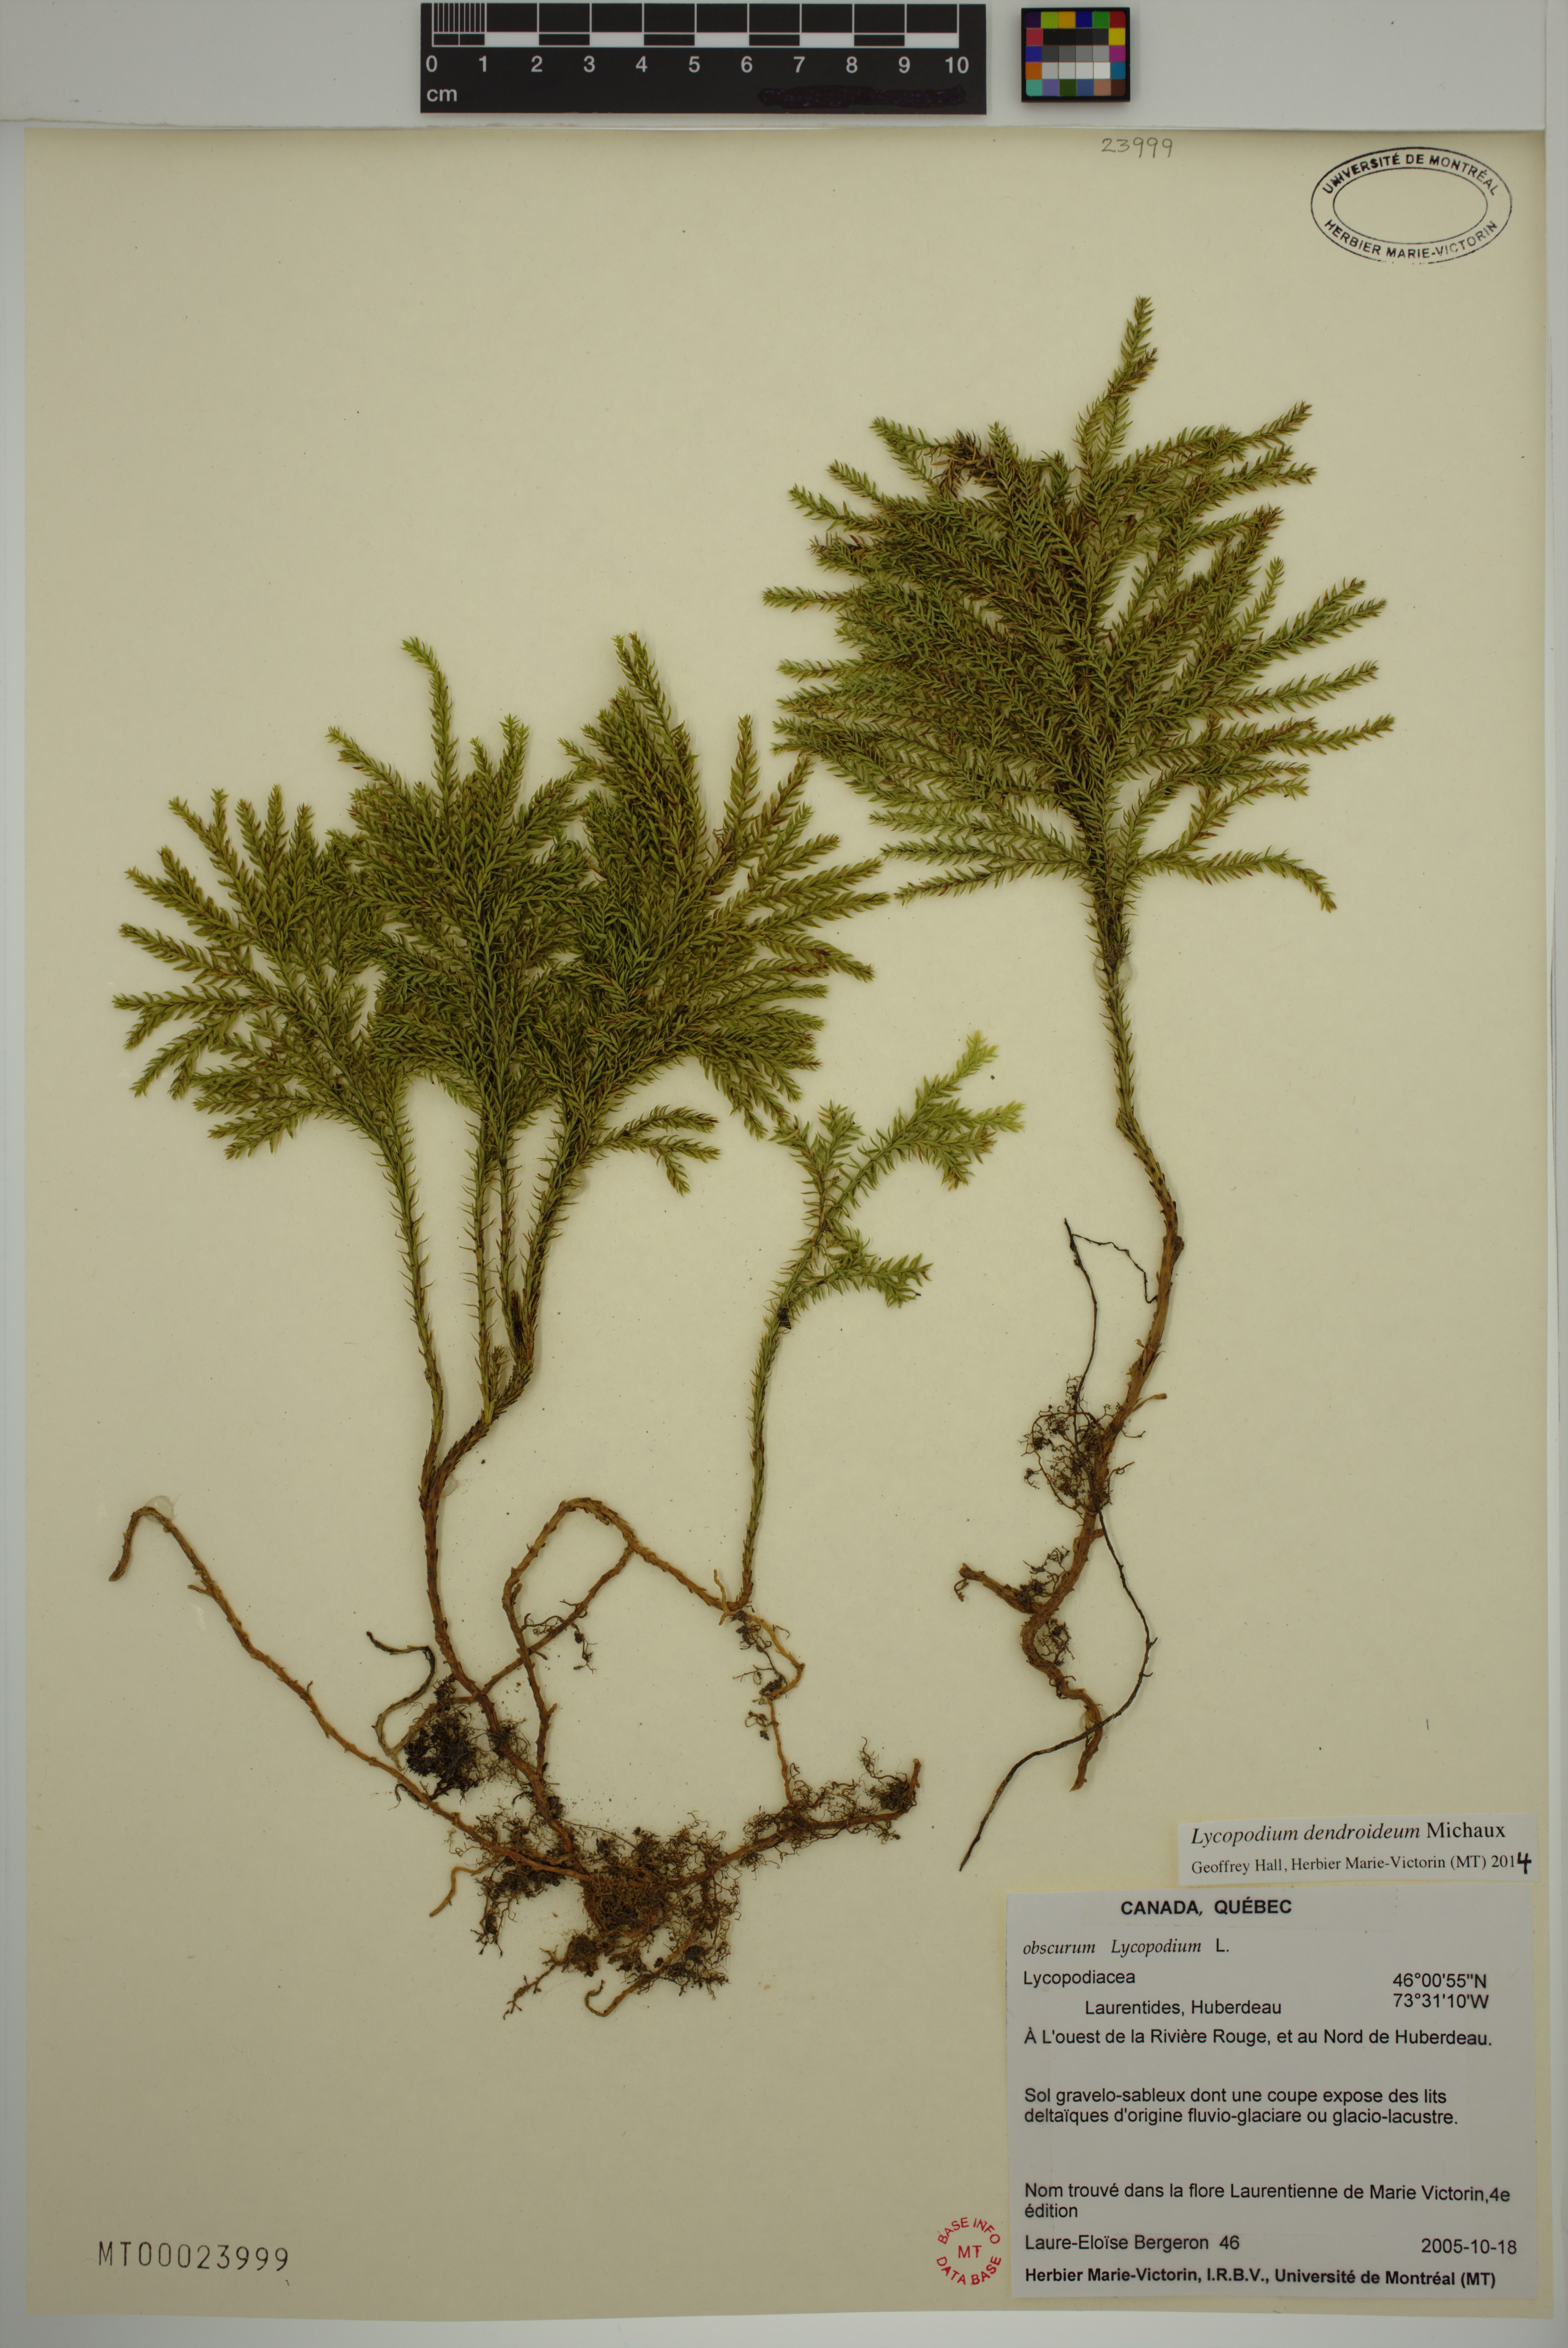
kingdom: Plantae
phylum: Tracheophyta
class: Lycopodiopsida
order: Lycopodiales
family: Lycopodiaceae
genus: Dendrolycopodium
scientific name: Dendrolycopodium dendroideum
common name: Northern tree-clubmoss
